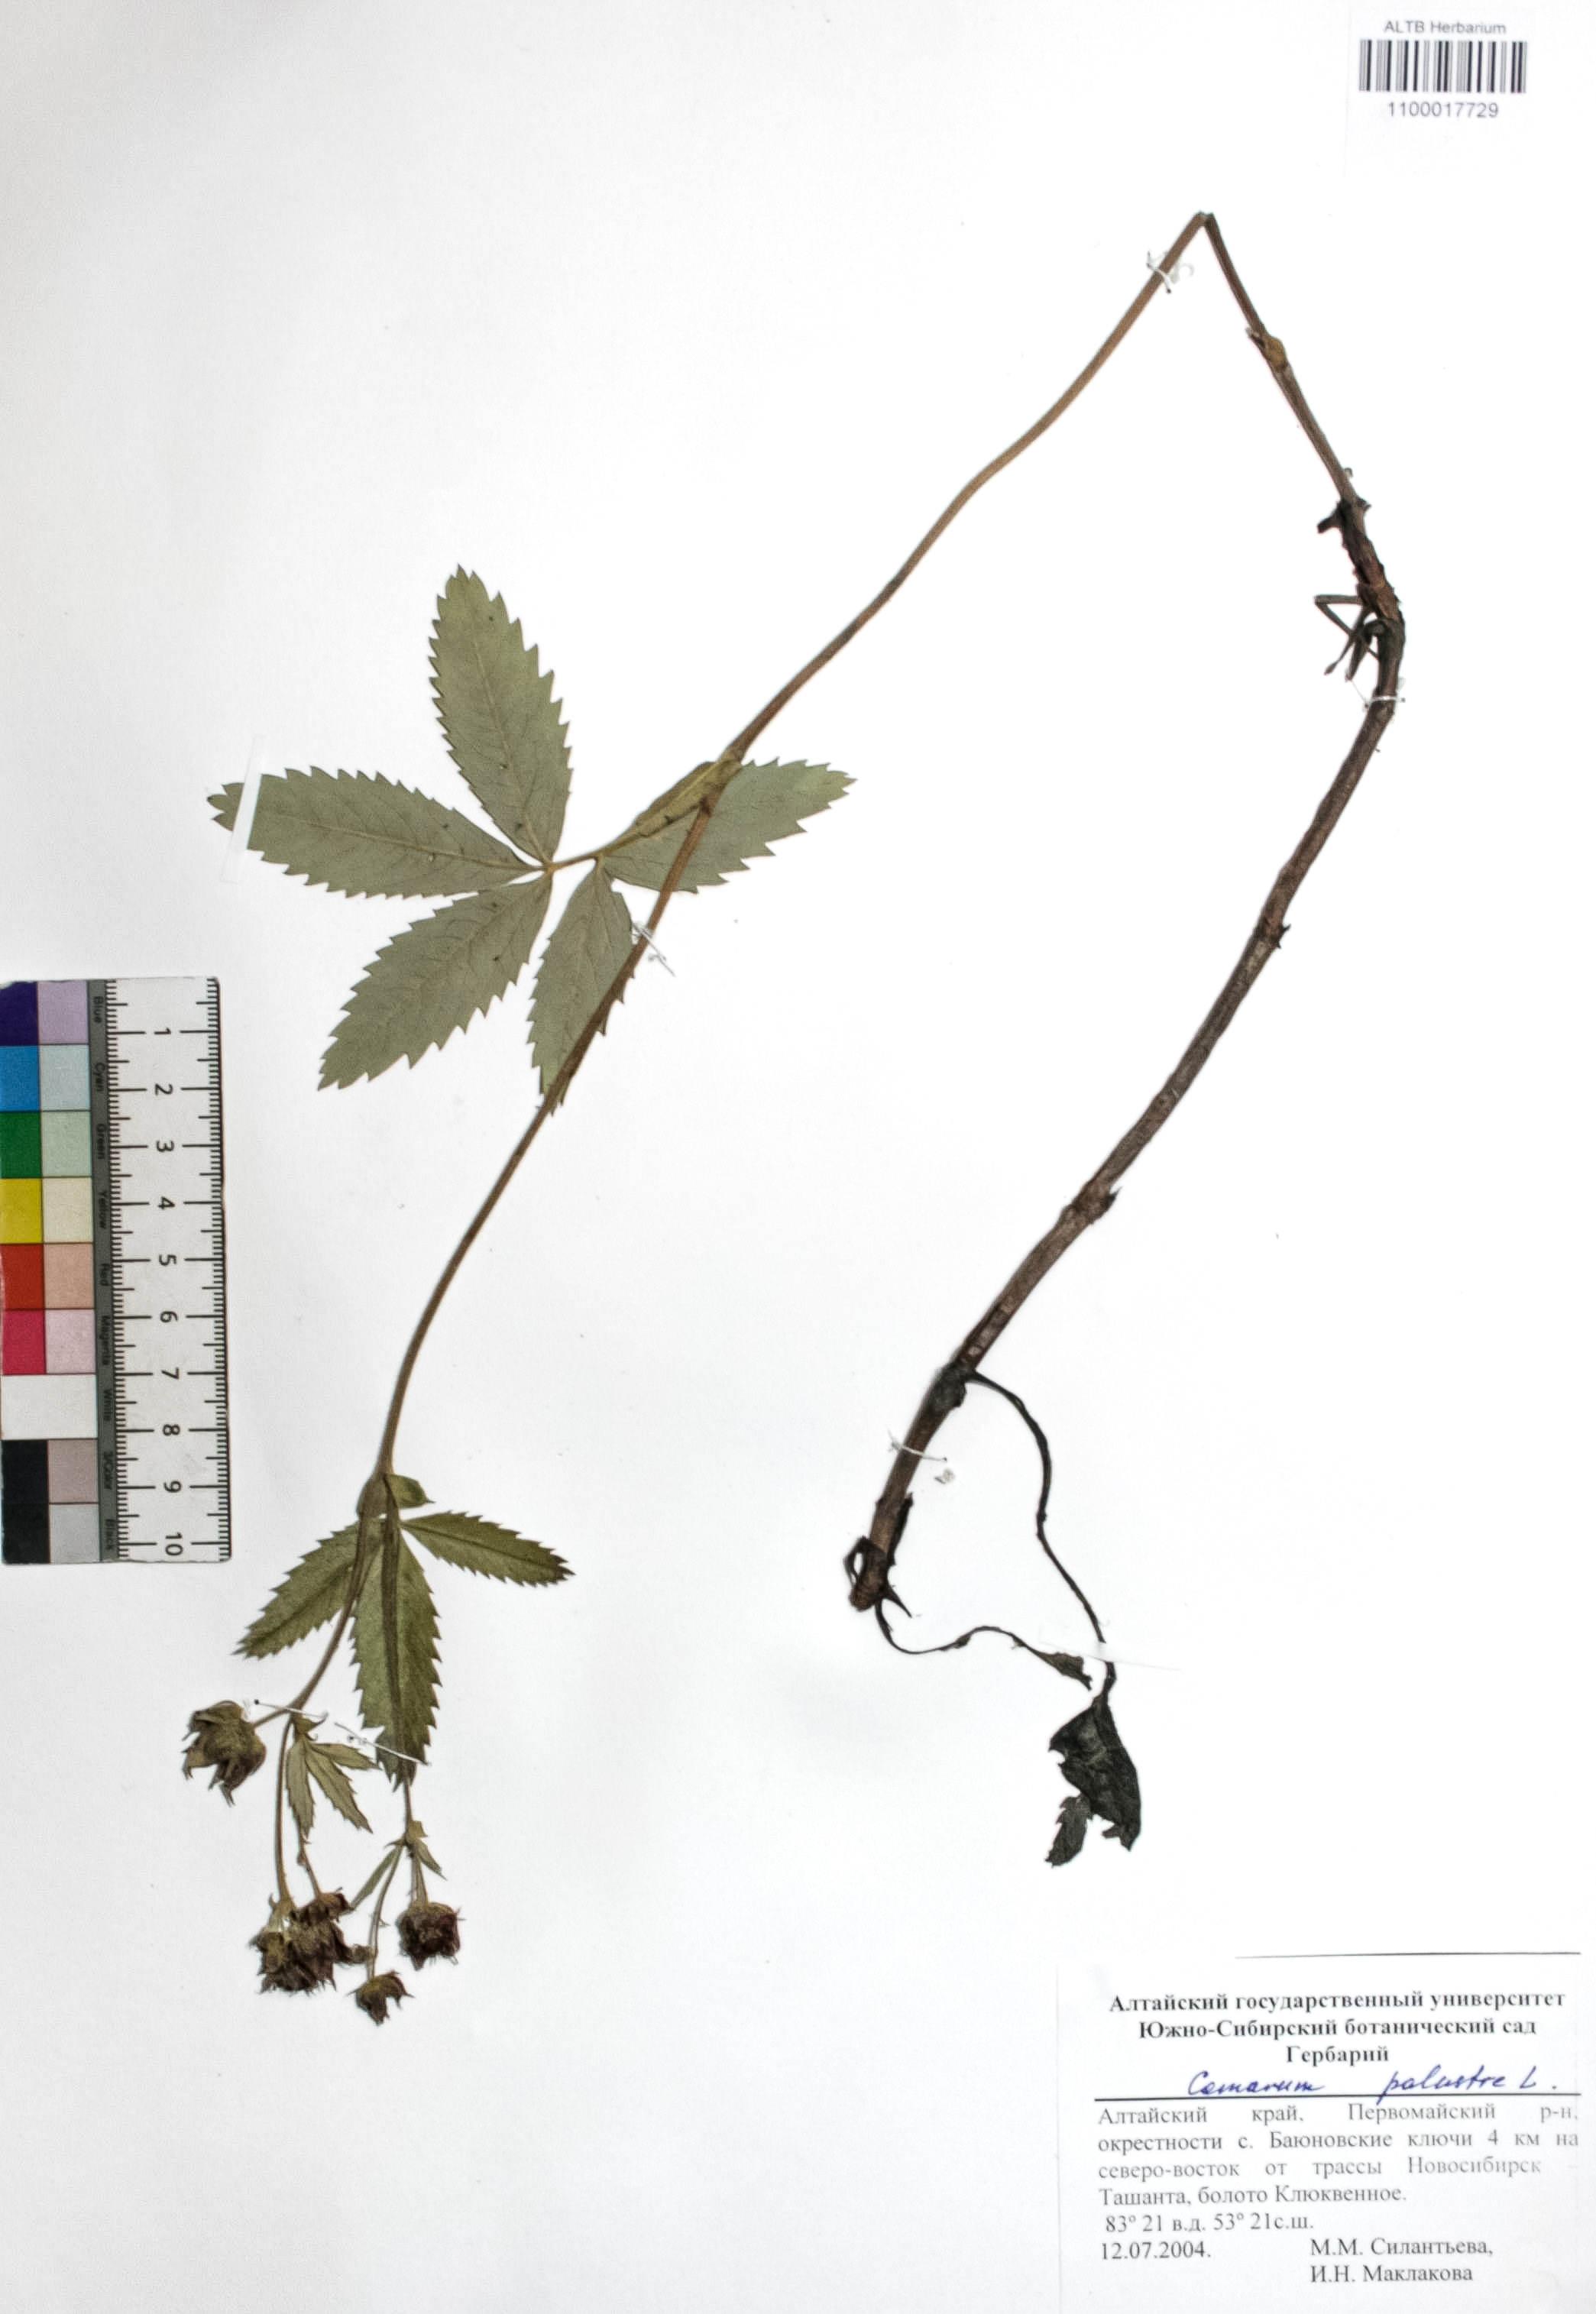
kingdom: Plantae
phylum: Tracheophyta
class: Magnoliopsida
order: Rosales
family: Rosaceae
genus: Comarum
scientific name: Comarum palustre
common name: Marsh cinquefoil
